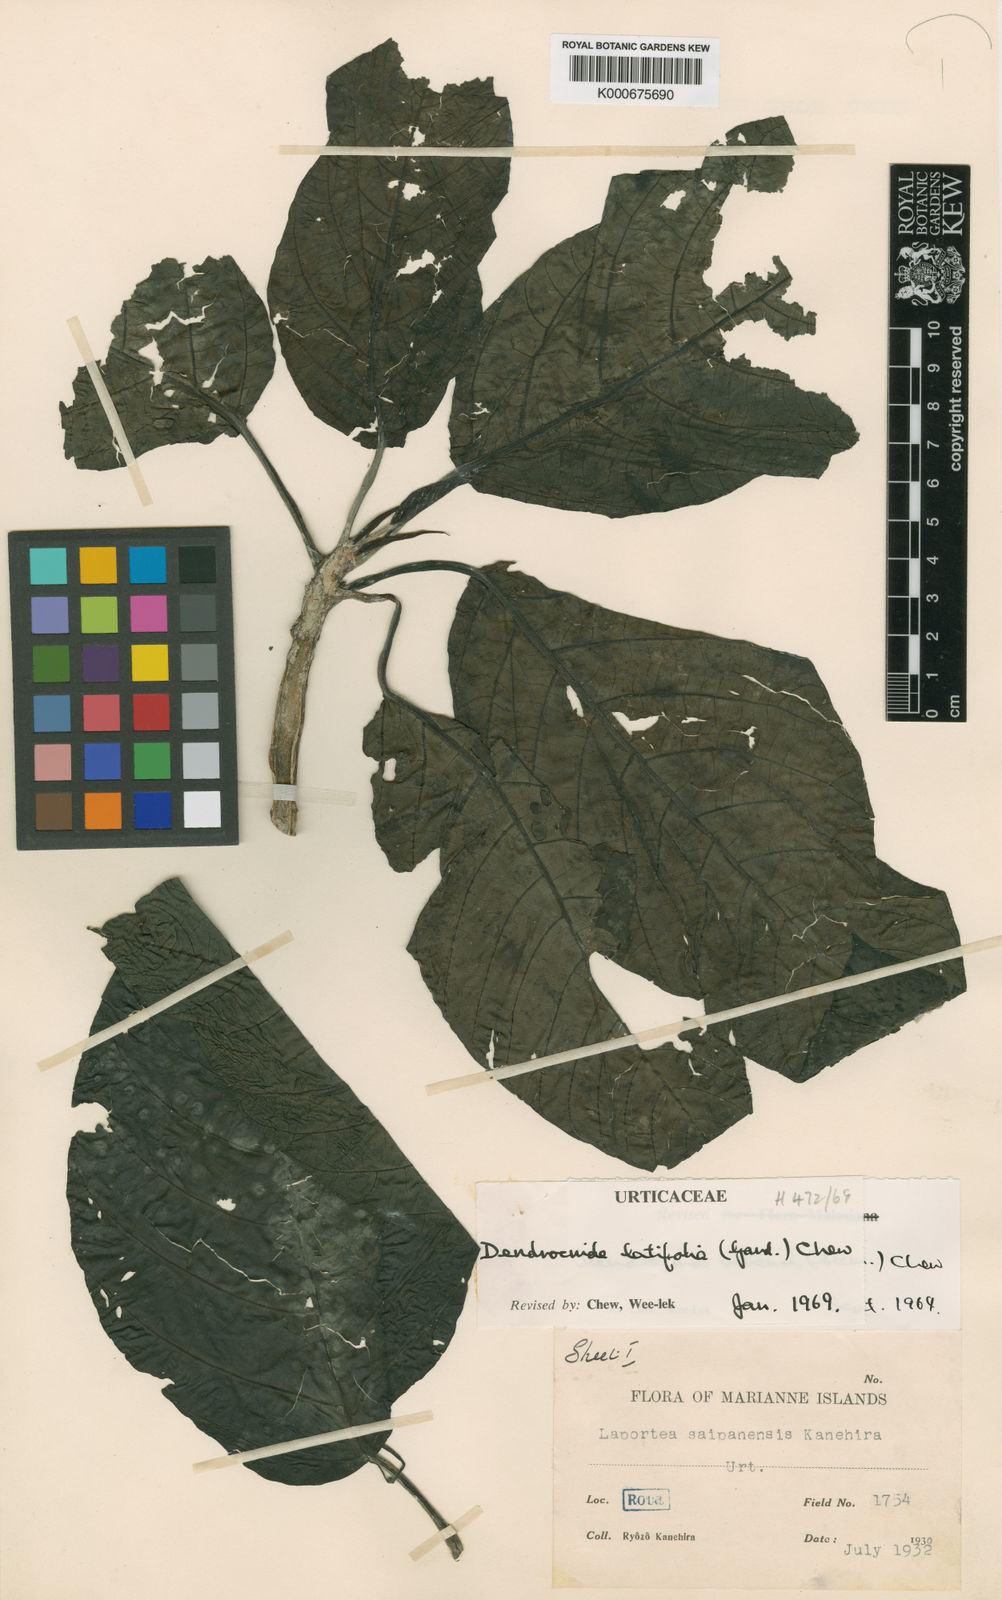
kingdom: Plantae
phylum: Tracheophyta
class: Magnoliopsida
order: Rosales
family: Urticaceae
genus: Dendrocnide
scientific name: Dendrocnide latifolia
